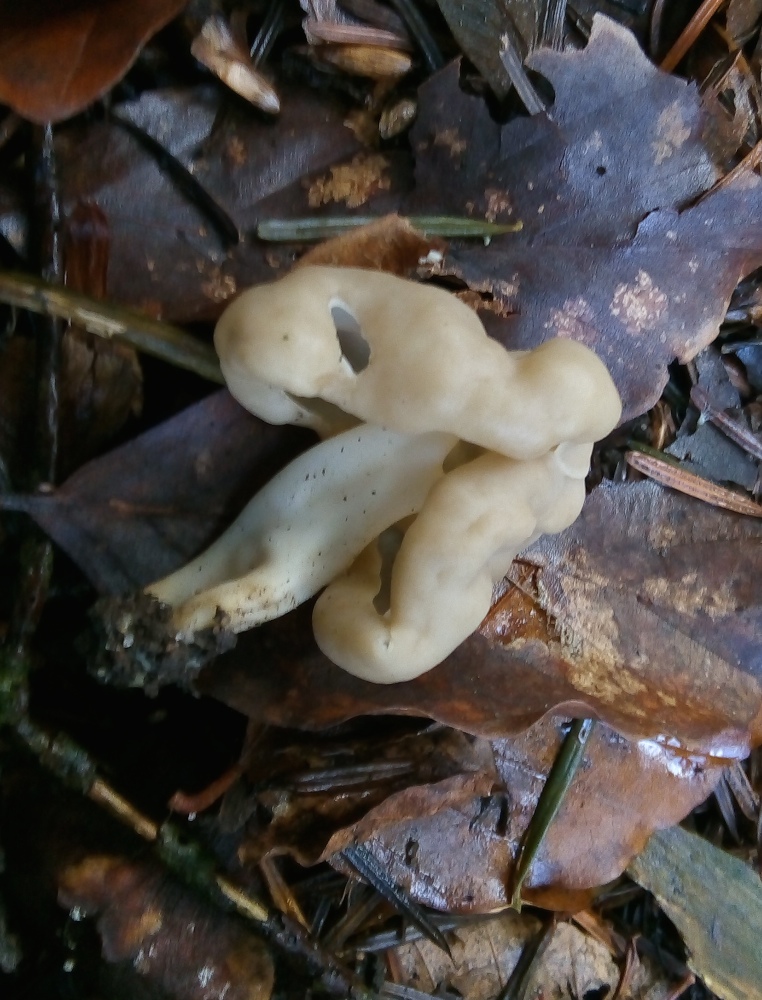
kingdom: Fungi
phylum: Ascomycota
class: Pezizomycetes
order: Pezizales
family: Helvellaceae
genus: Helvella
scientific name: Helvella elastica
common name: elastik-foldhat
